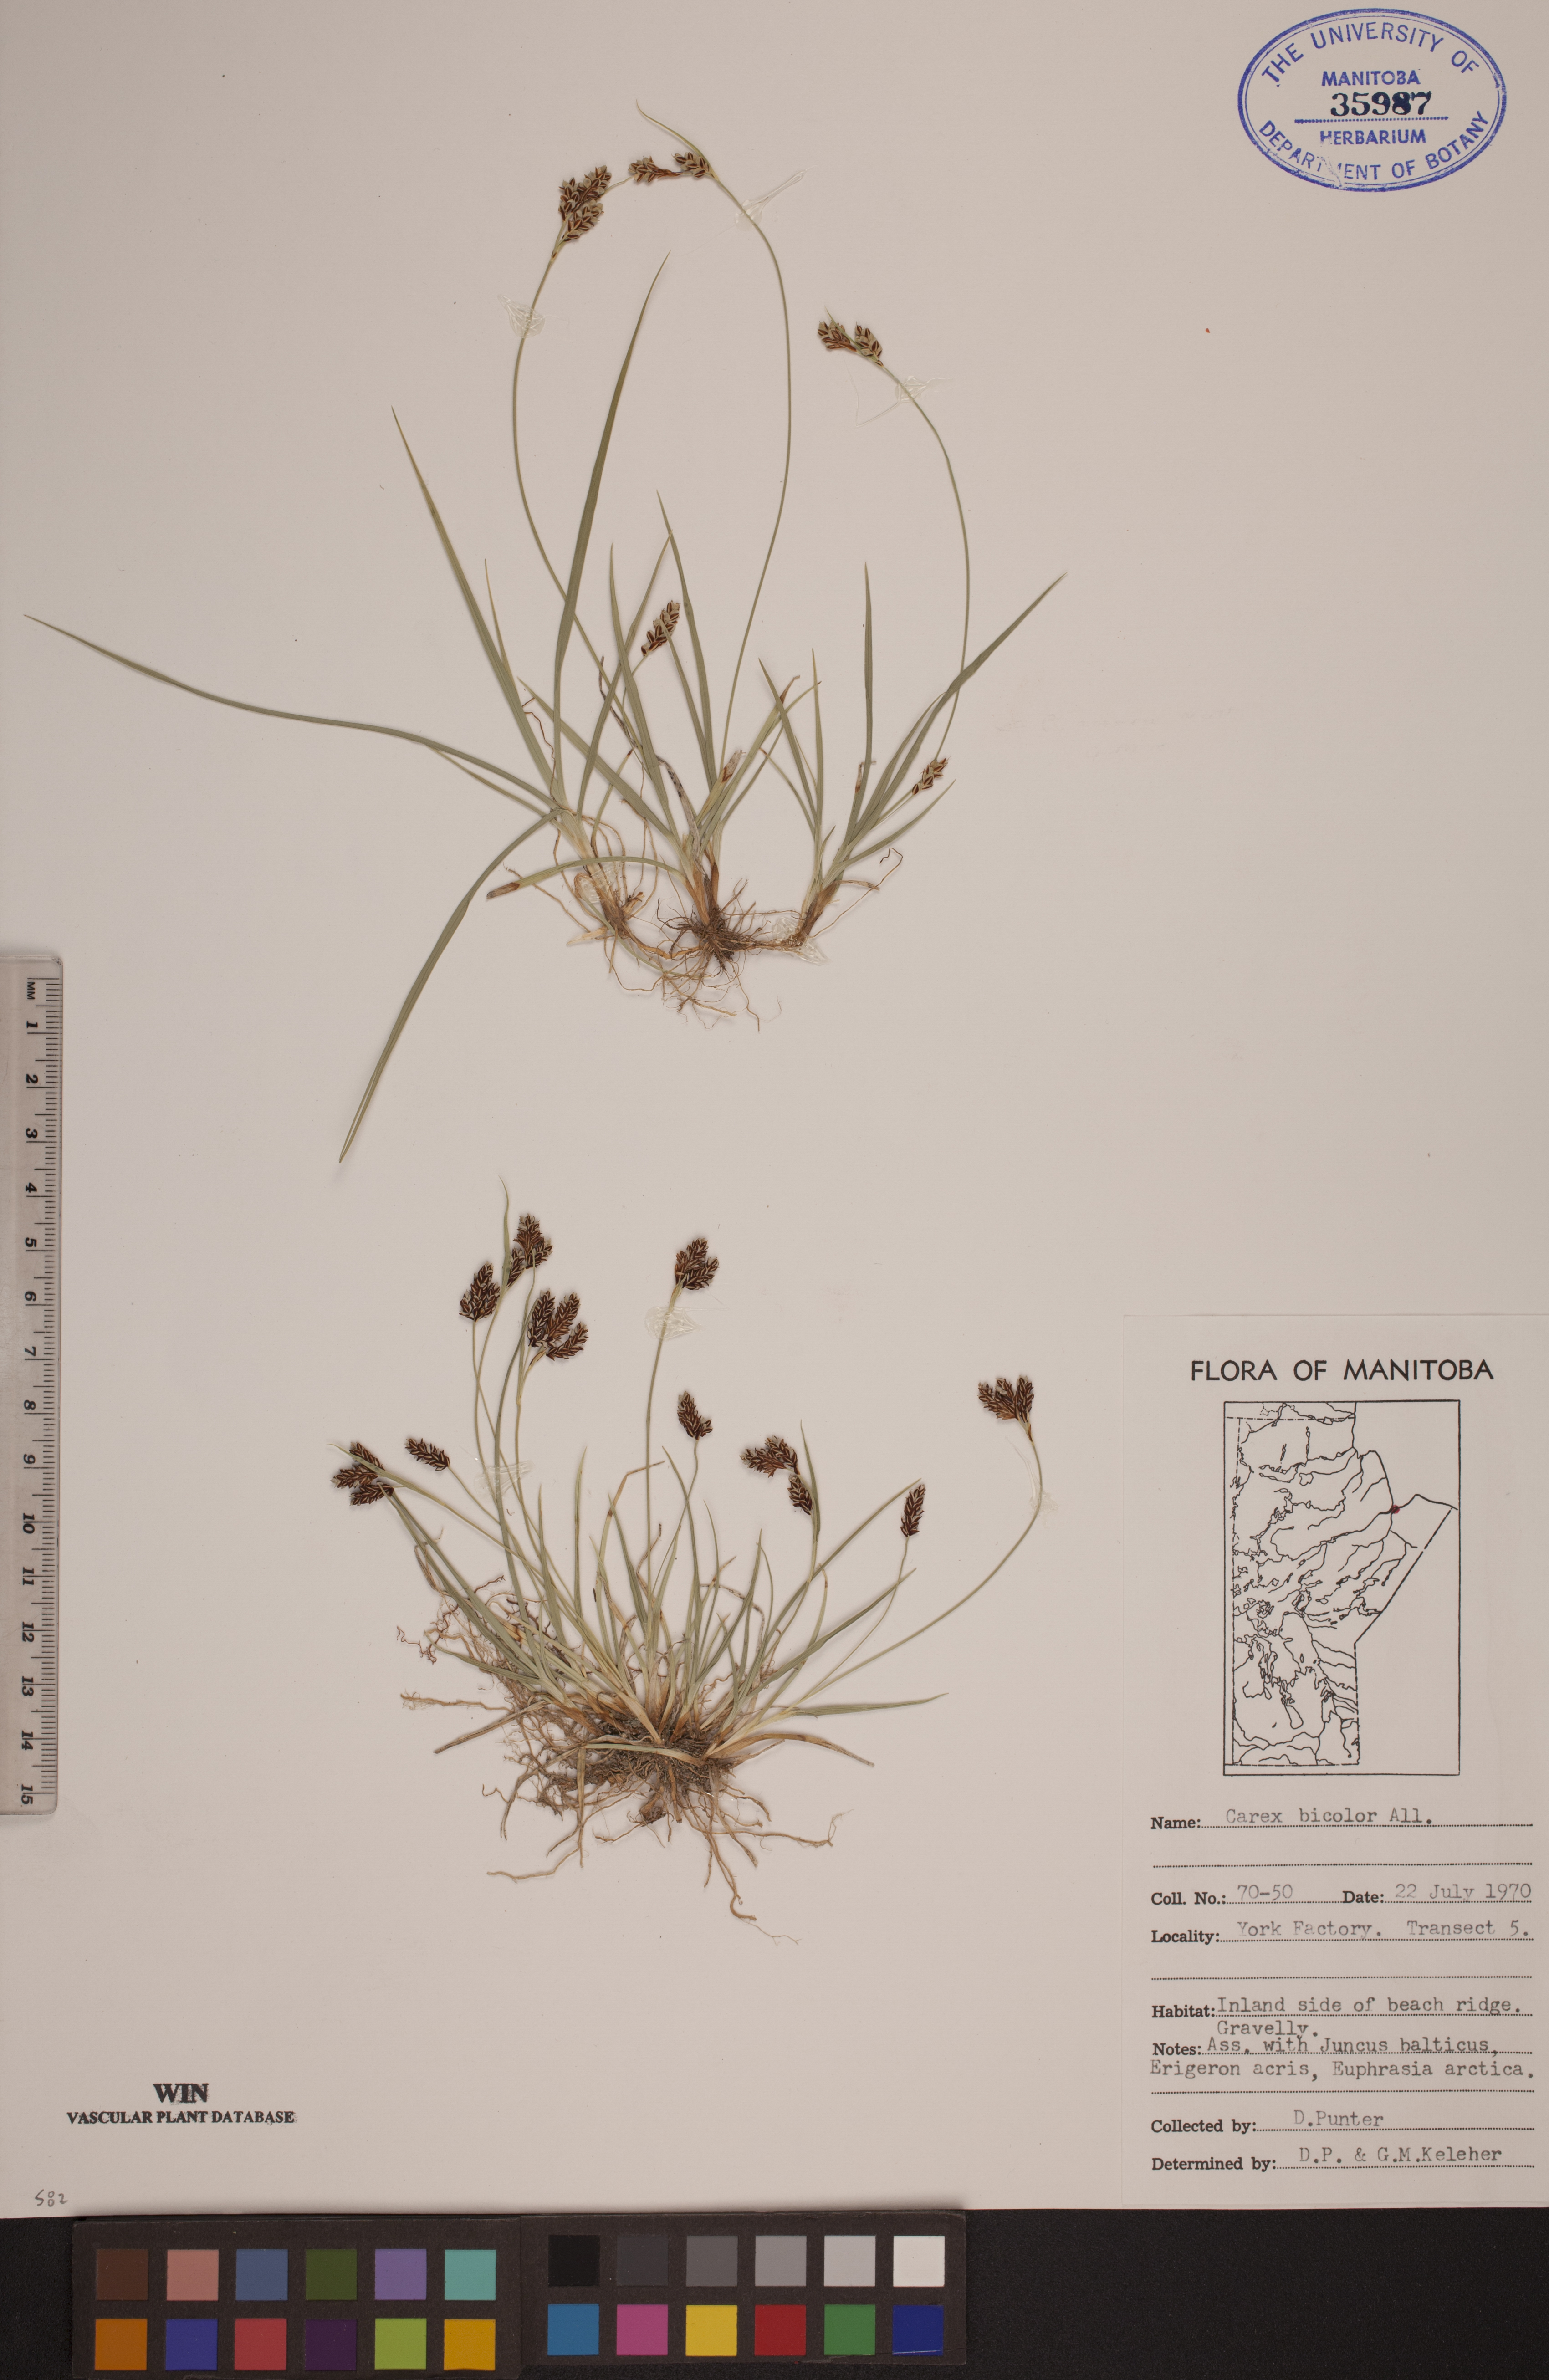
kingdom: Plantae
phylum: Tracheophyta
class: Liliopsida
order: Poales
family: Cyperaceae
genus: Carex
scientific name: Carex bicolor
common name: Bicoloured sedge
